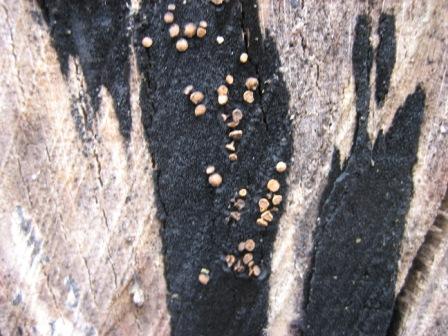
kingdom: Fungi
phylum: Ascomycota
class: Leotiomycetes
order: Helotiales
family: Helotiaceae
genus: Bispora
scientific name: Bispora pallescens
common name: måtte-snitskive
